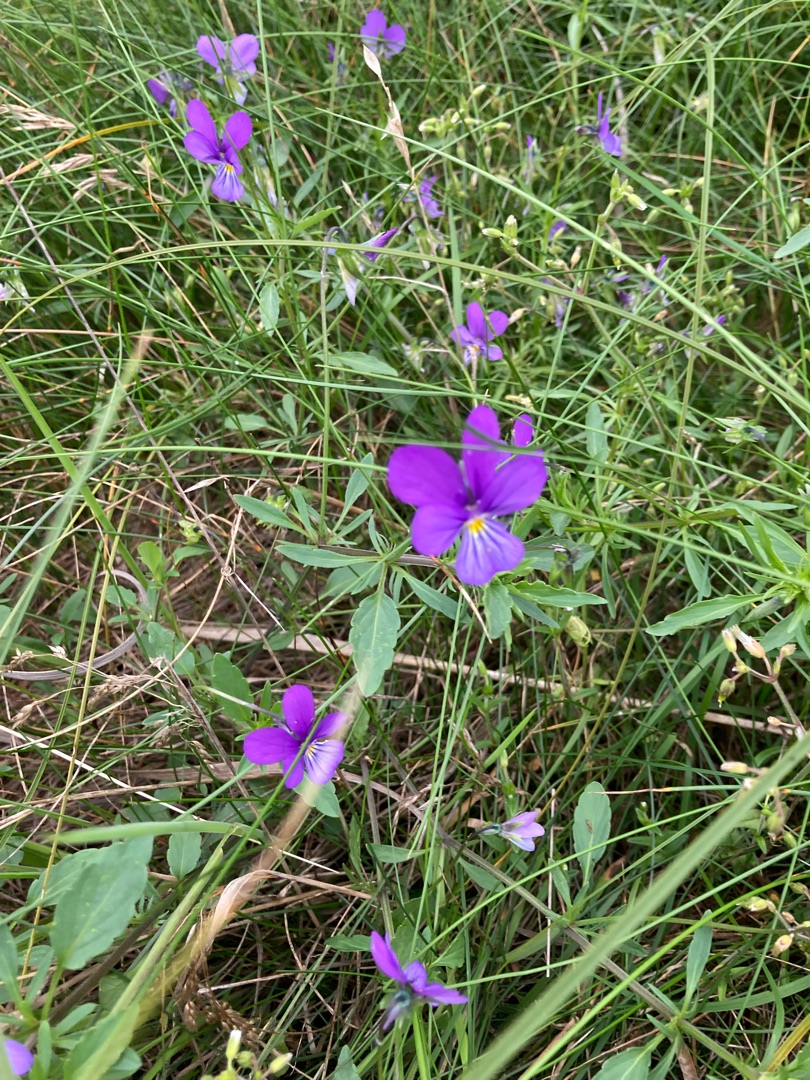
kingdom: Plantae
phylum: Tracheophyta
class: Magnoliopsida
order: Malpighiales
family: Violaceae
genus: Viola
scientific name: Viola tricolor
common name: Stedmoderblomst
